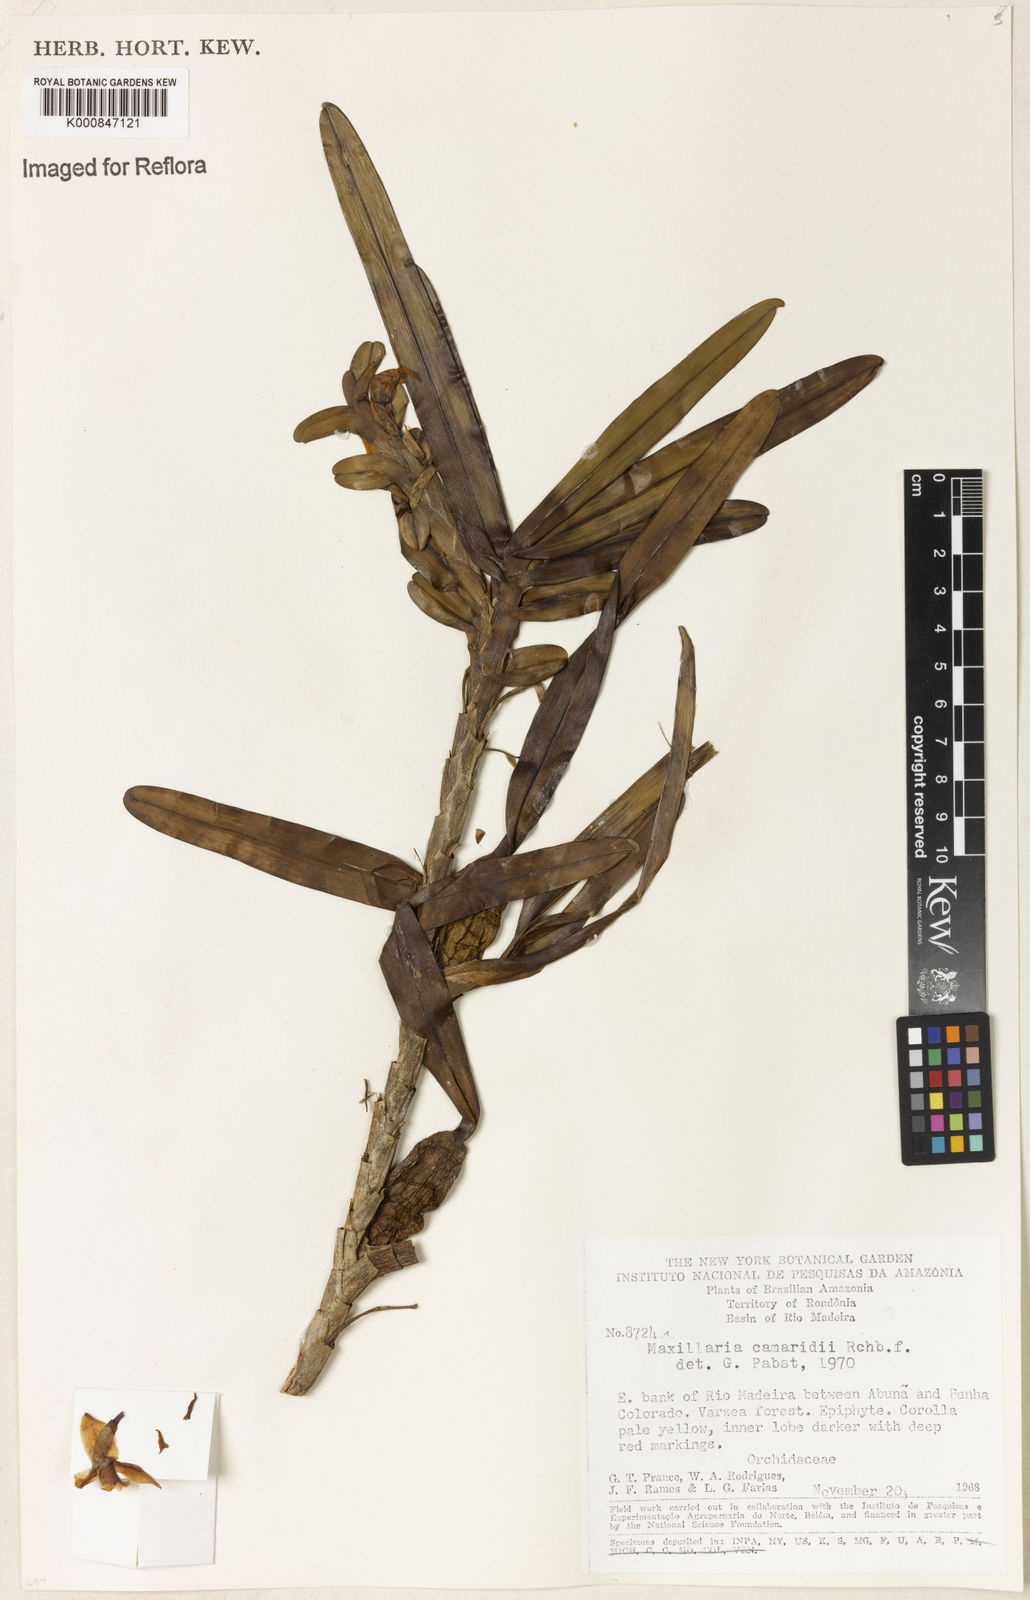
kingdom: Plantae
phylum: Tracheophyta
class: Liliopsida
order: Asparagales
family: Orchidaceae
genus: Maxillaria
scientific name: Maxillaria lutescens
